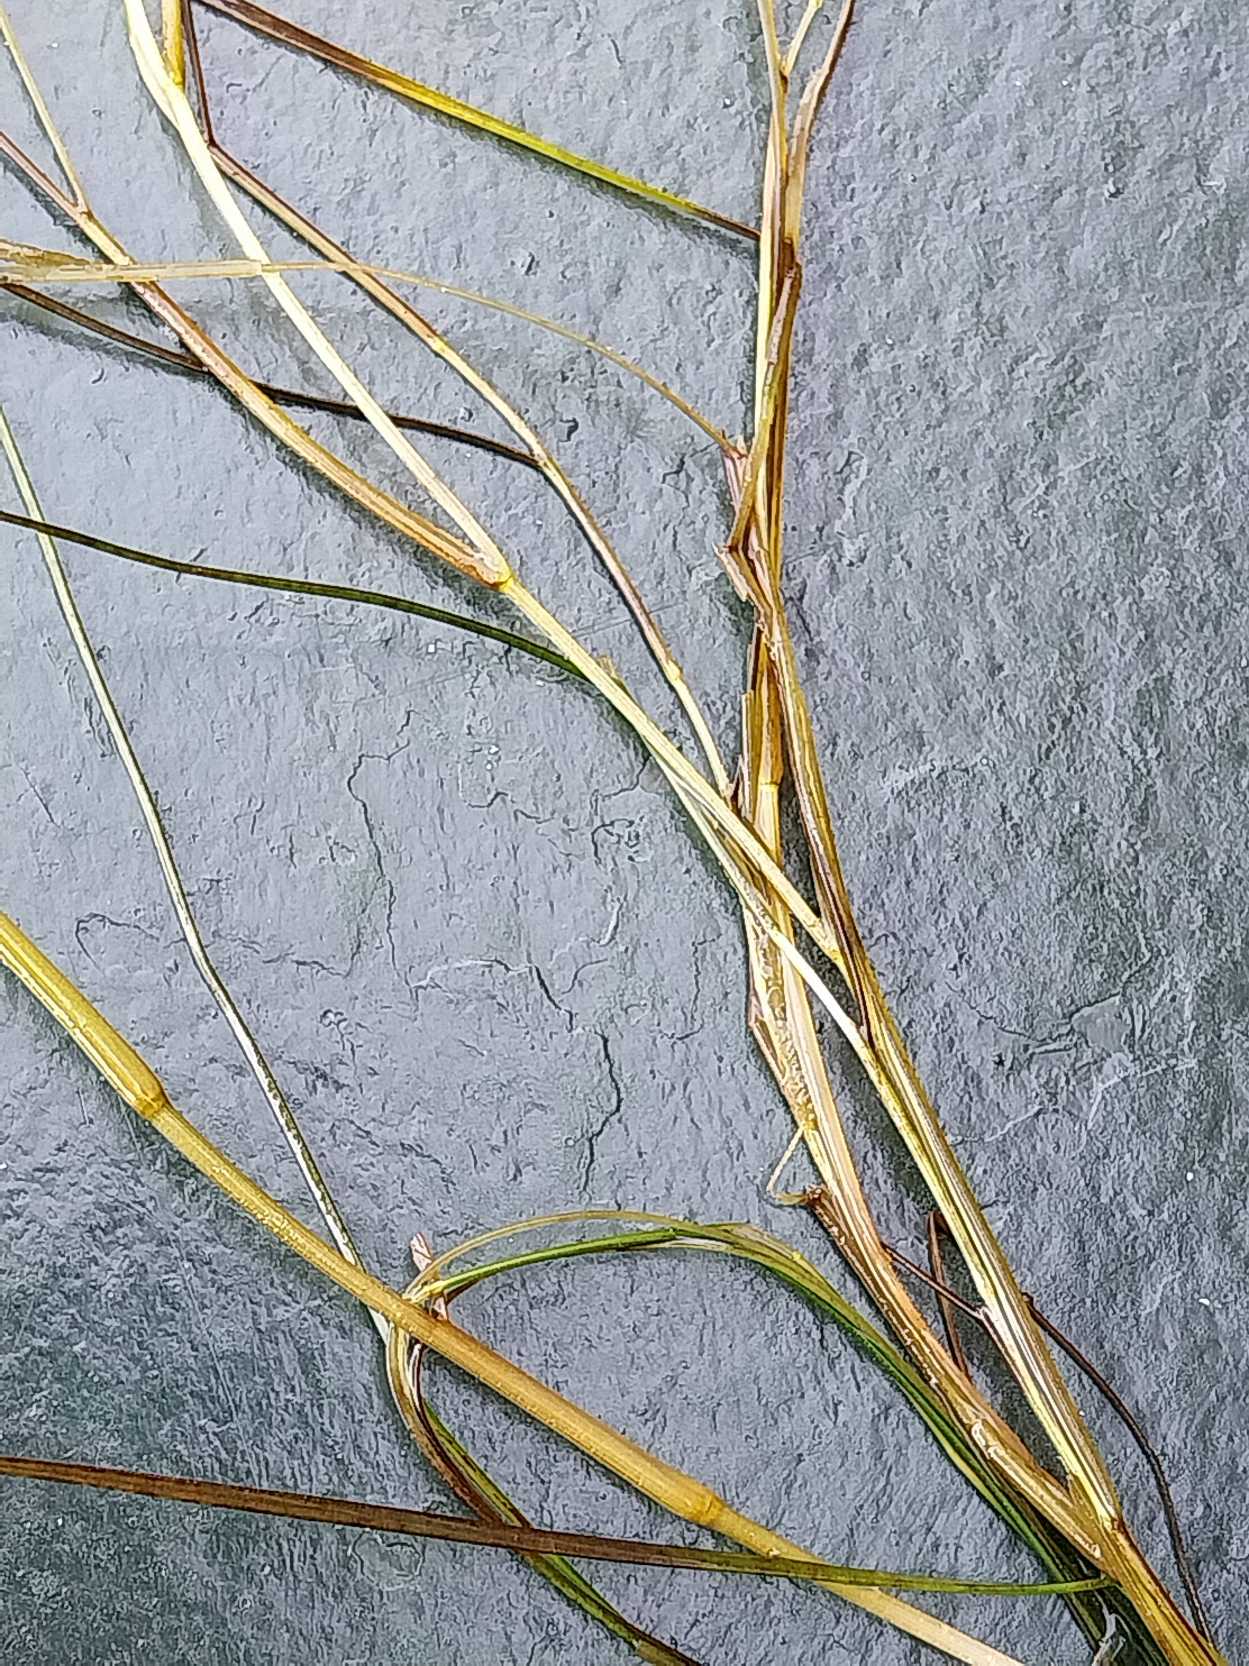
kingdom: Plantae
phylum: Tracheophyta
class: Liliopsida
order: Alismatales
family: Potamogetonaceae
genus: Stuckenia
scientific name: Stuckenia pectinata
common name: Børstebladet vandaks
